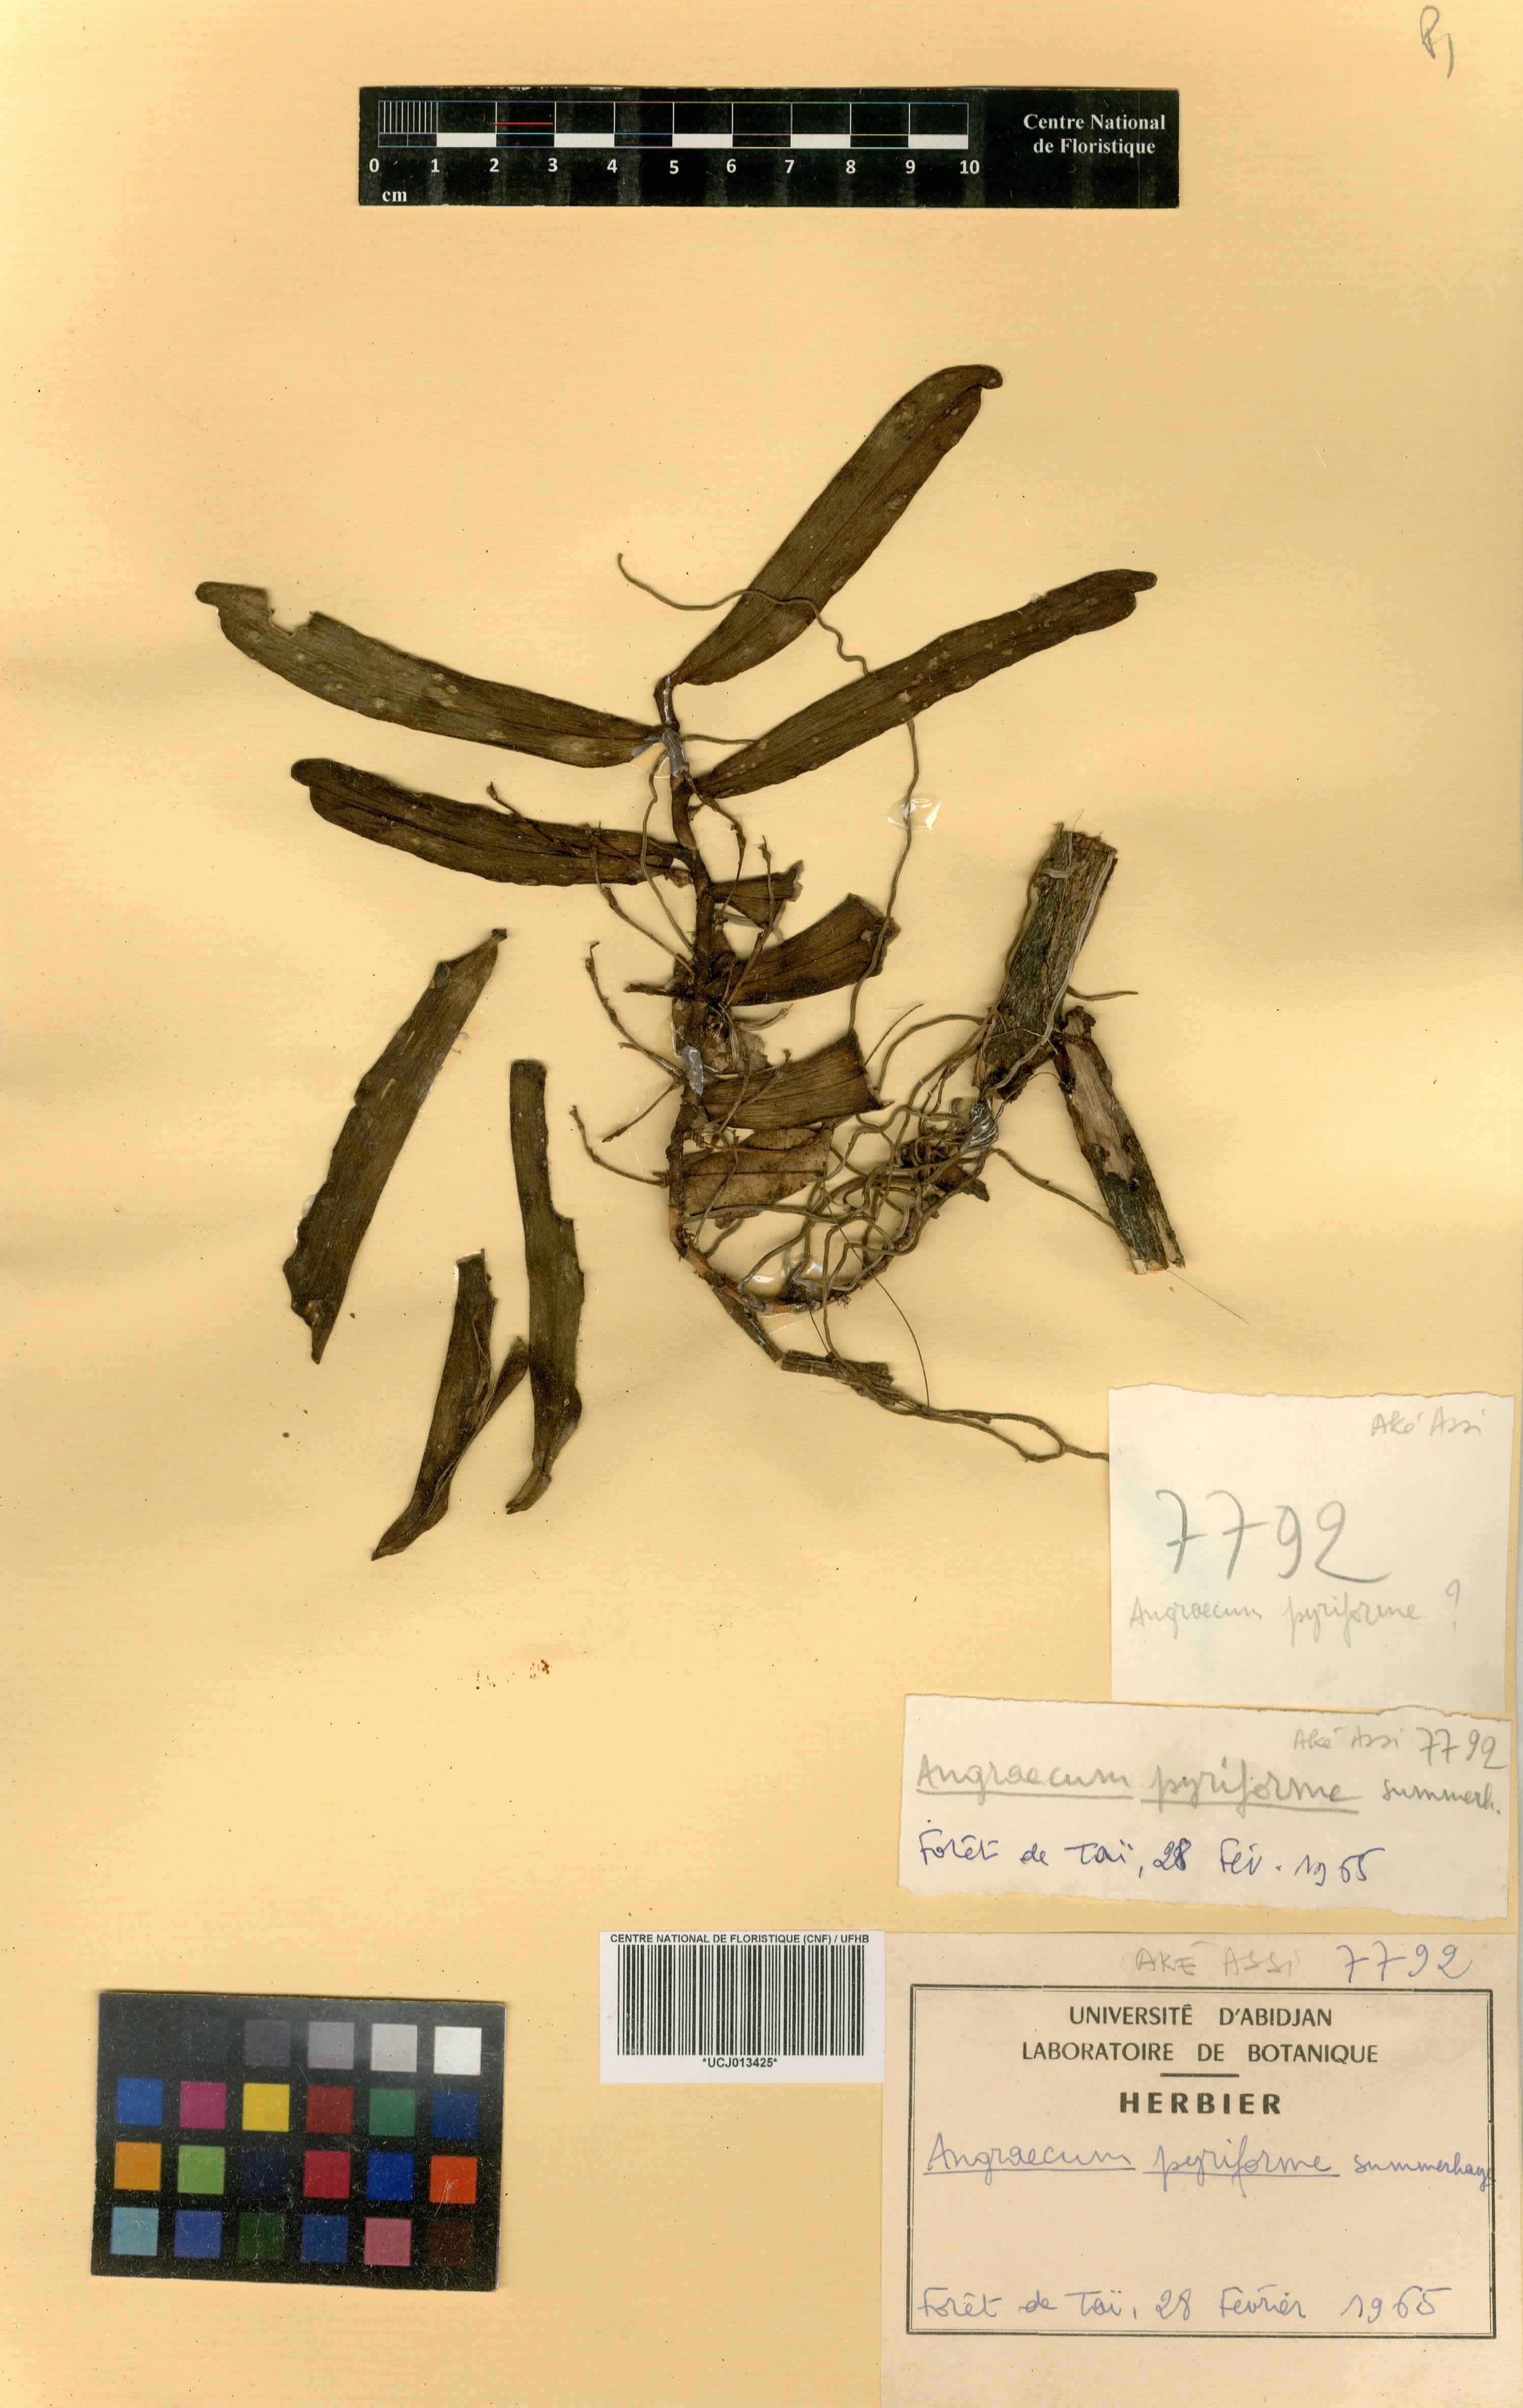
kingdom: Plantae
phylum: Tracheophyta
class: Liliopsida
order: Asparagales
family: Orchidaceae
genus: Angraecum
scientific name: Angraecum pyriforme
